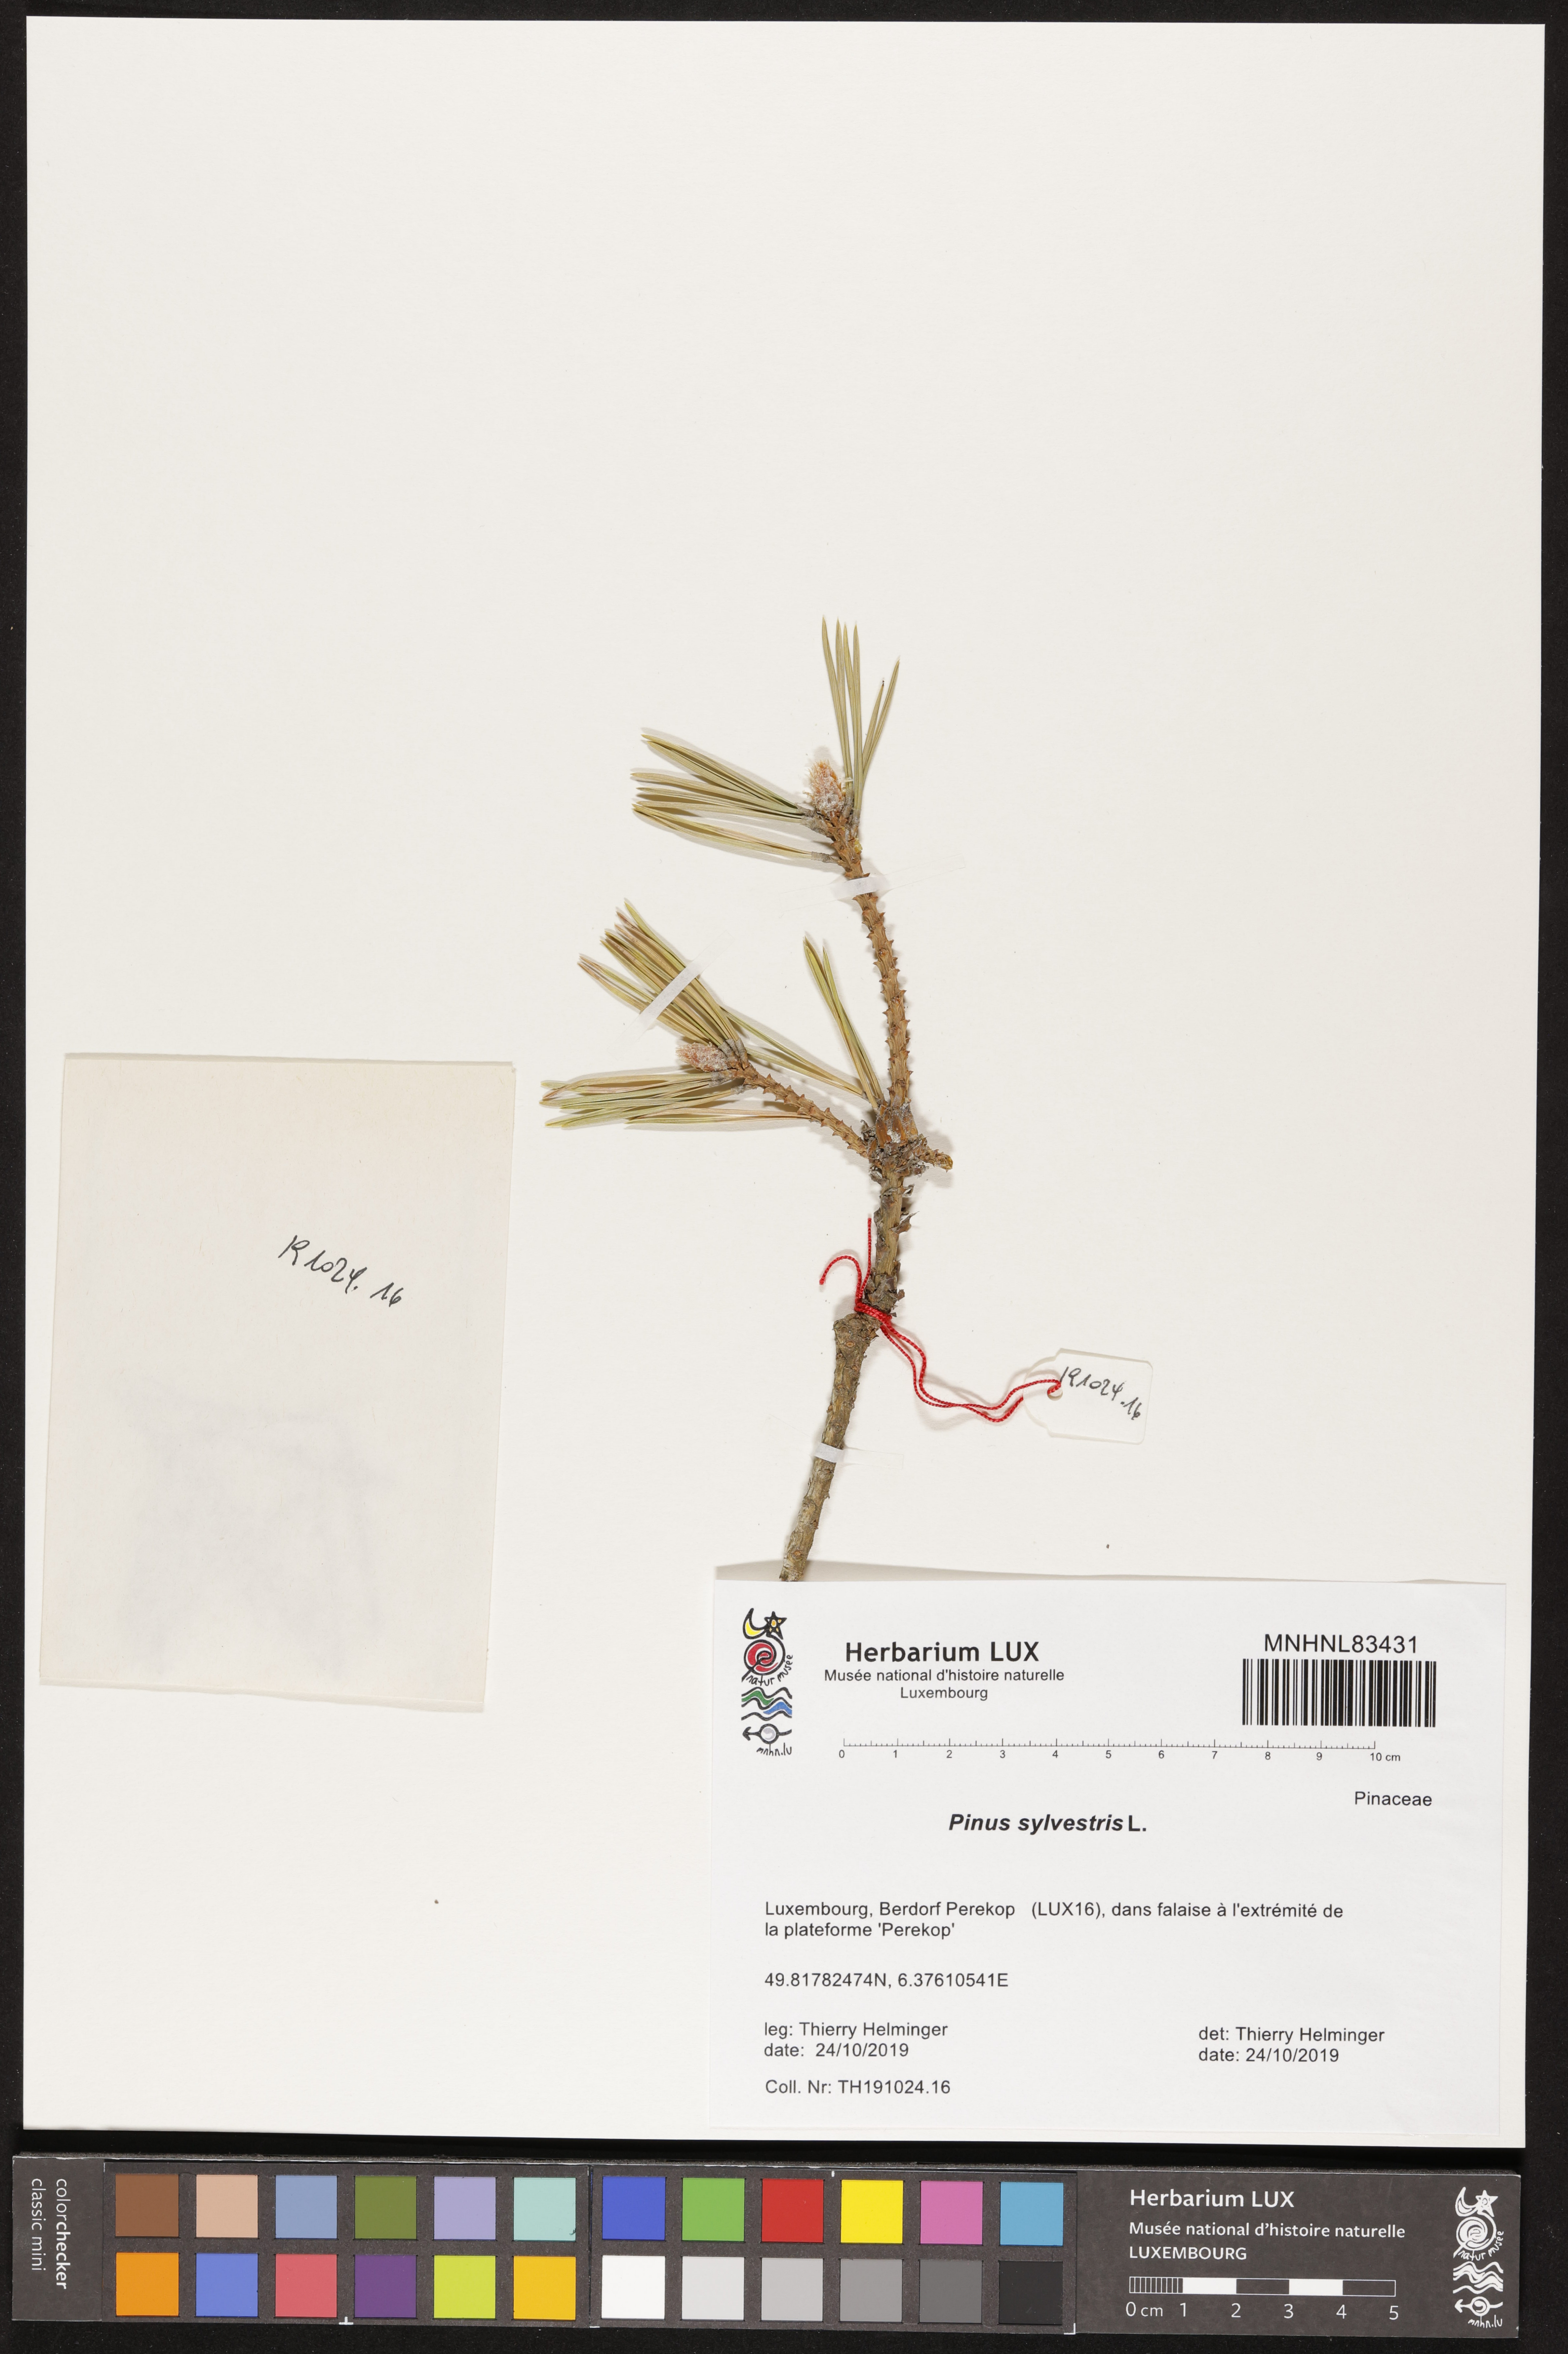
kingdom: Plantae
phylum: Tracheophyta
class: Pinopsida
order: Pinales
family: Pinaceae
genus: Pinus
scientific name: Pinus sylvestris
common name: Scots pine
